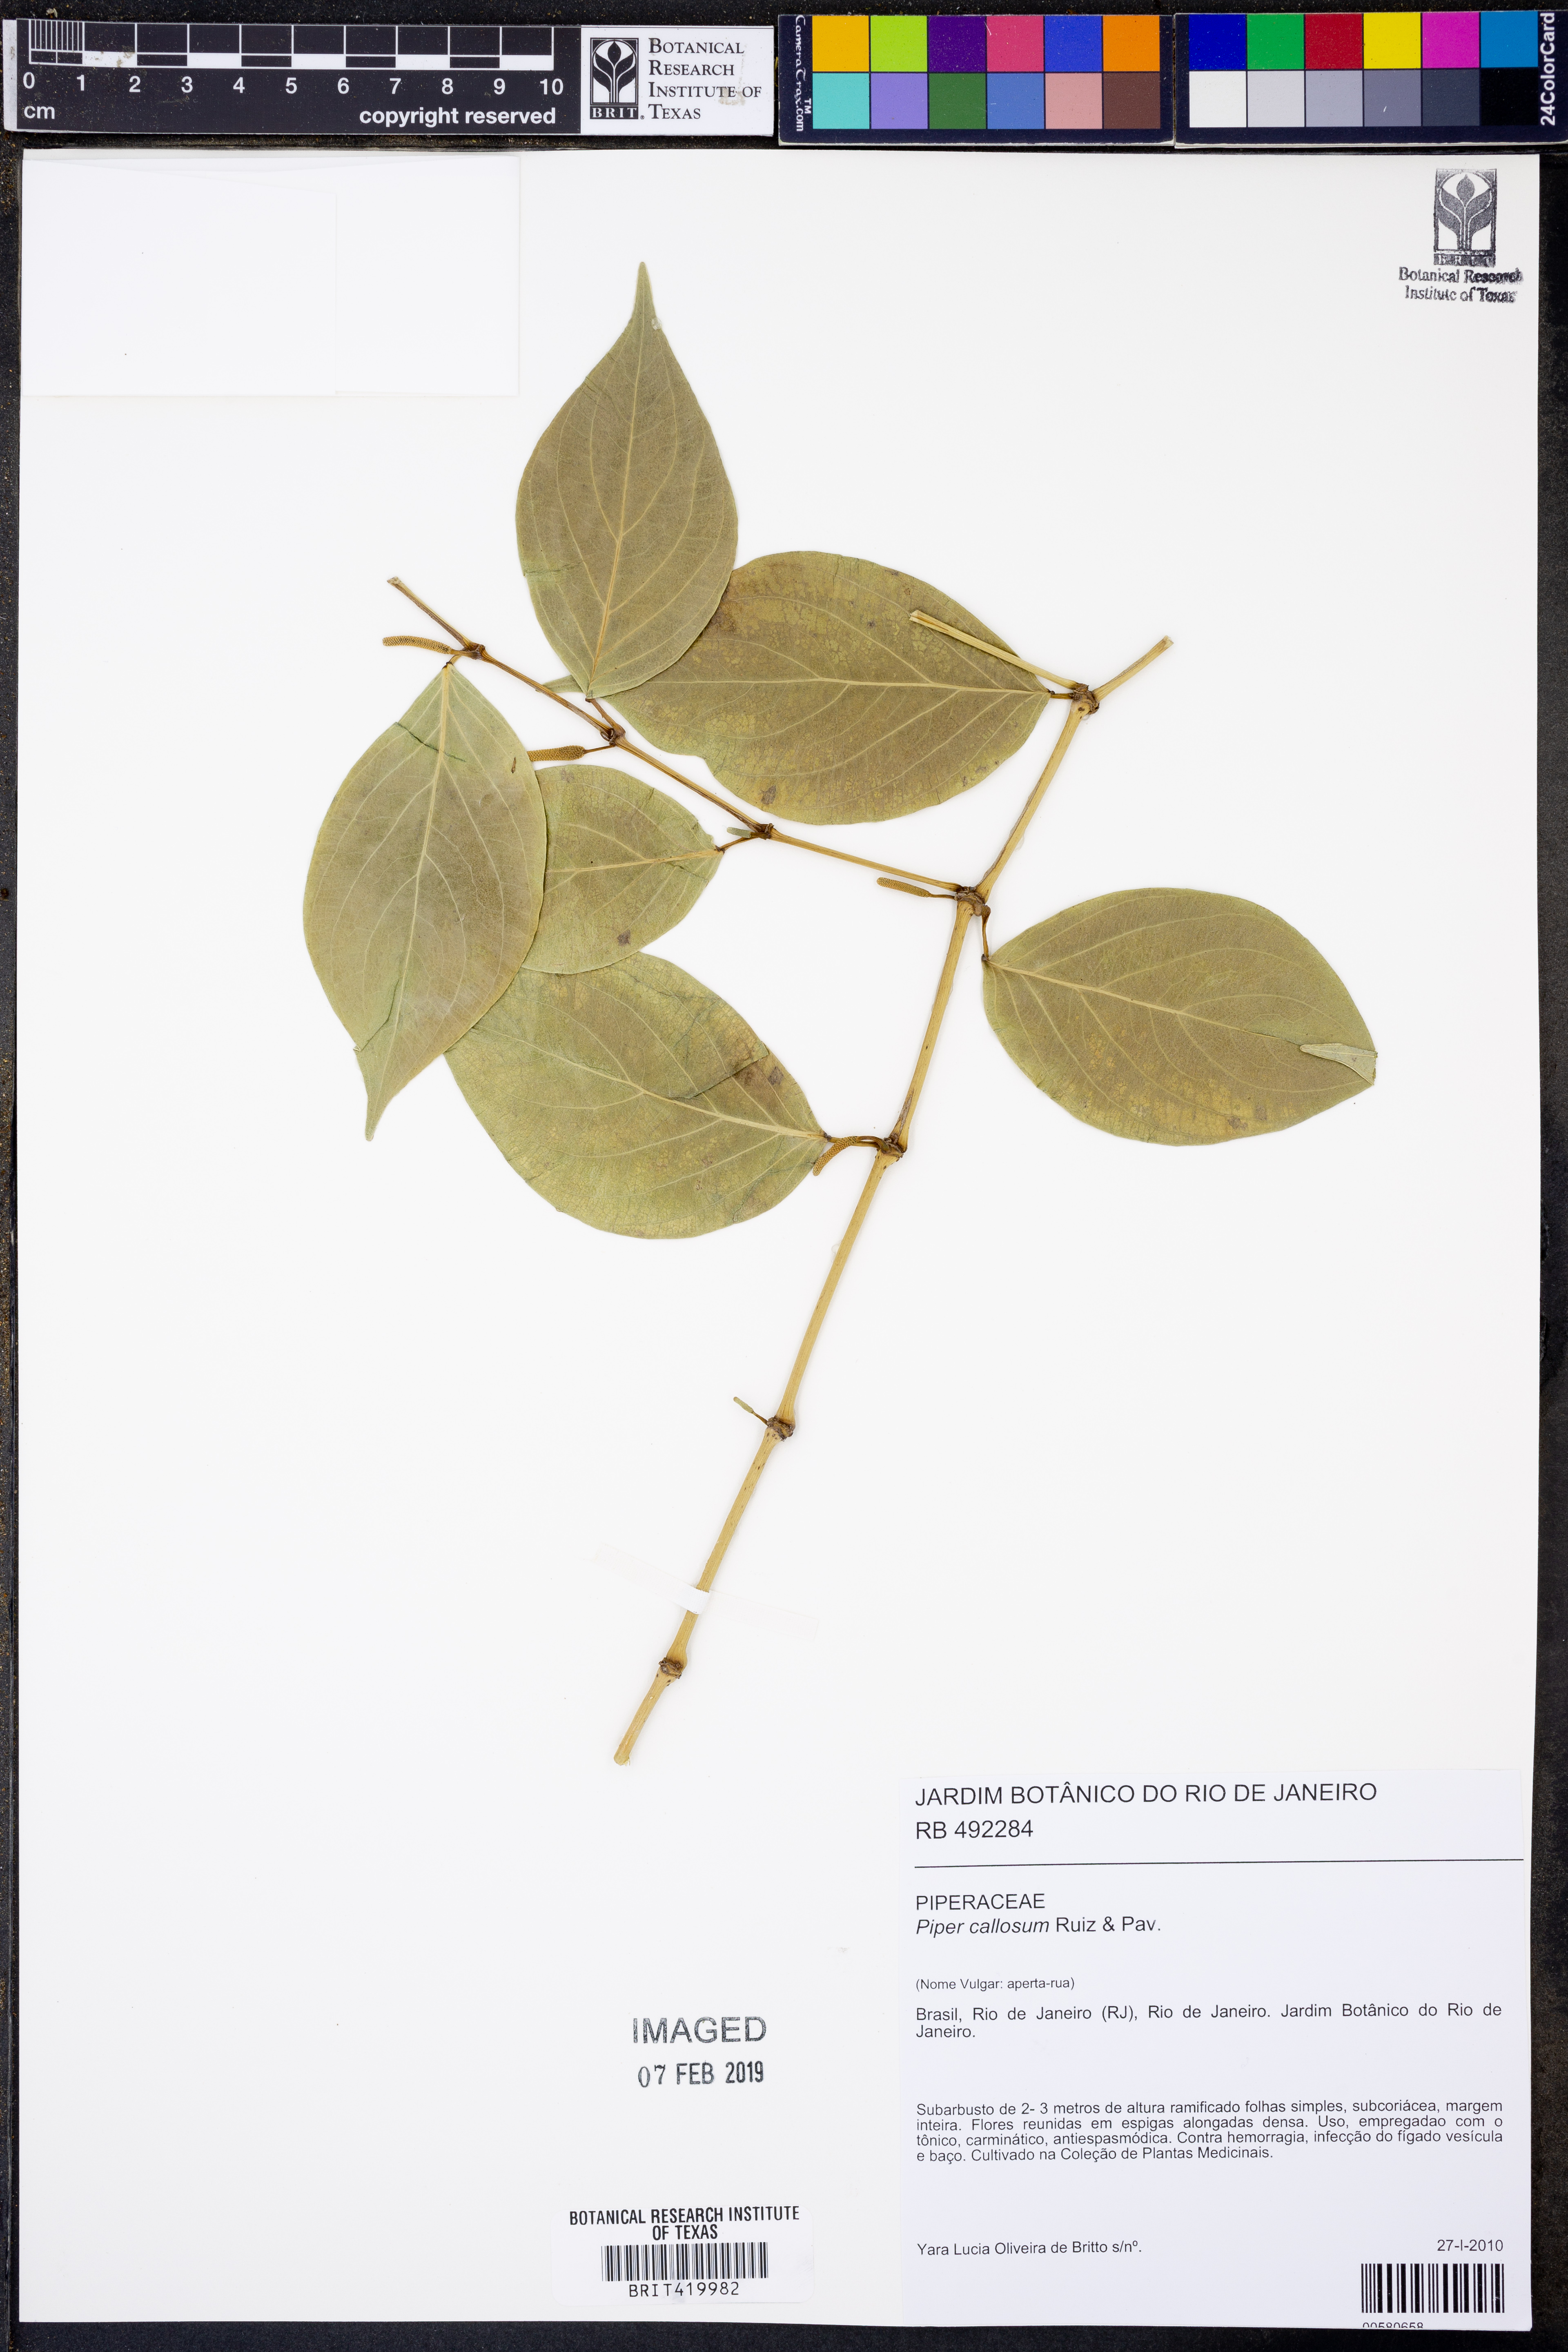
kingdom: Plantae
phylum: Tracheophyta
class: Magnoliopsida
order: Piperales
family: Piperaceae
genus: Piper
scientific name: Piper callosum
